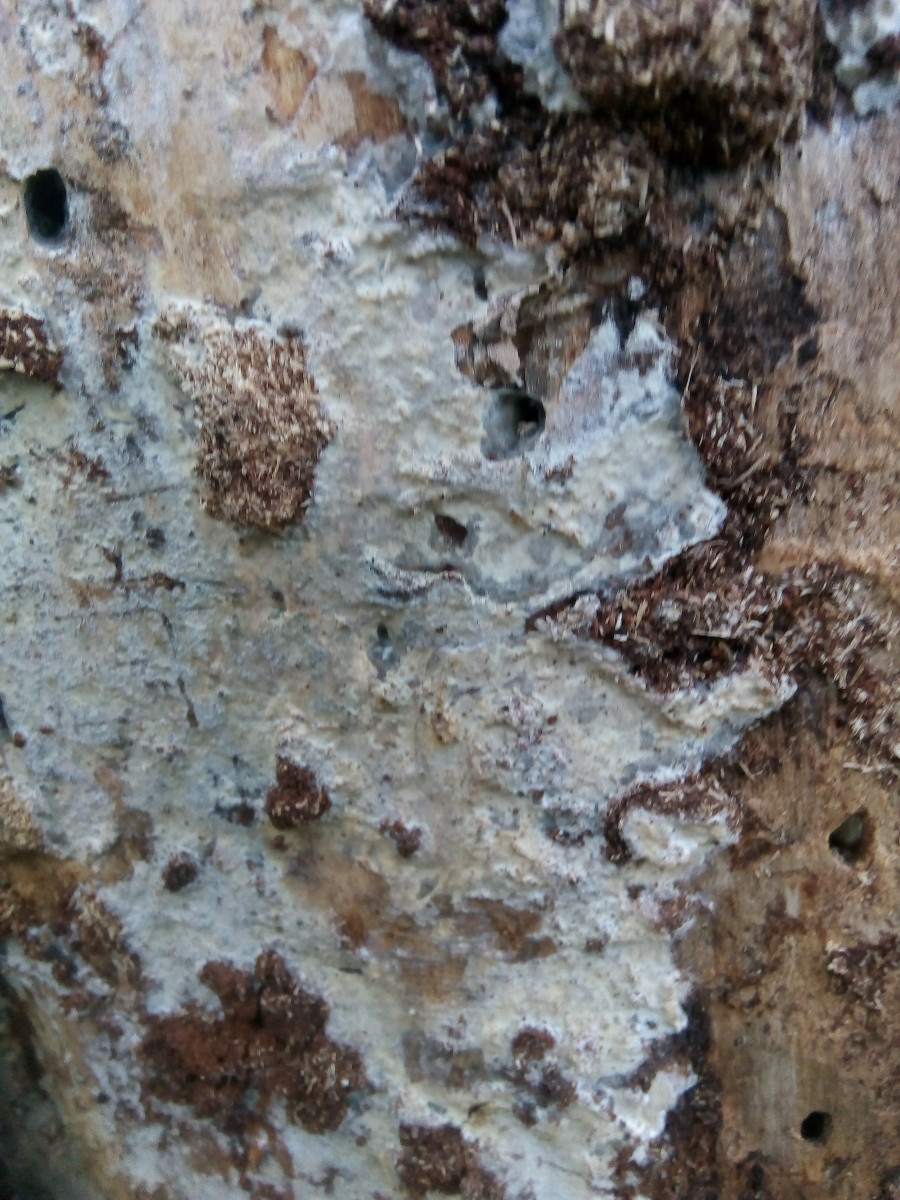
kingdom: Fungi
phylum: Basidiomycota
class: Agaricomycetes
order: Agaricales
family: Radulomycetaceae
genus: Aphanobasidium
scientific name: Aphanobasidium pseudotsugae
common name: tynd naftalinskind
